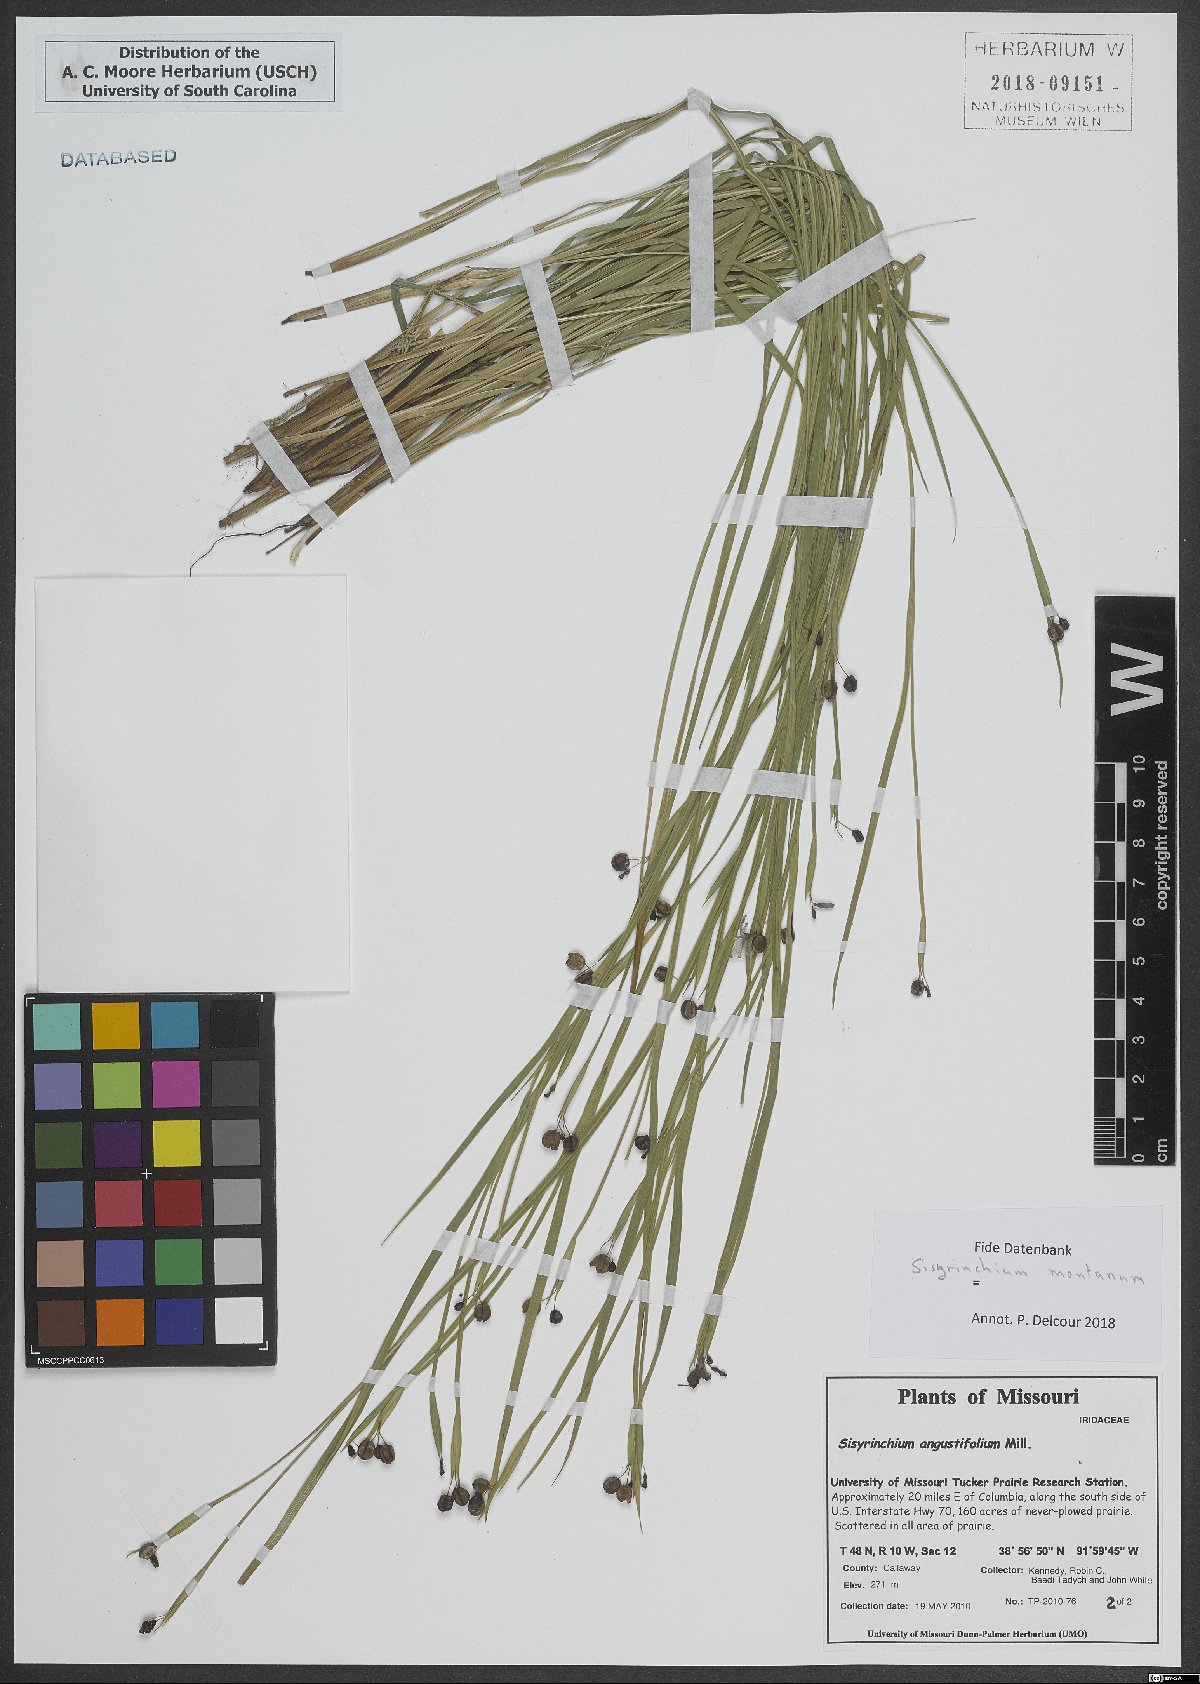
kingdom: Plantae
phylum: Tracheophyta
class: Liliopsida
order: Asparagales
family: Iridaceae
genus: Sisyrinchium
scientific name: Sisyrinchium angustifolium
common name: Narrow-leaf blue-eyed-grass
